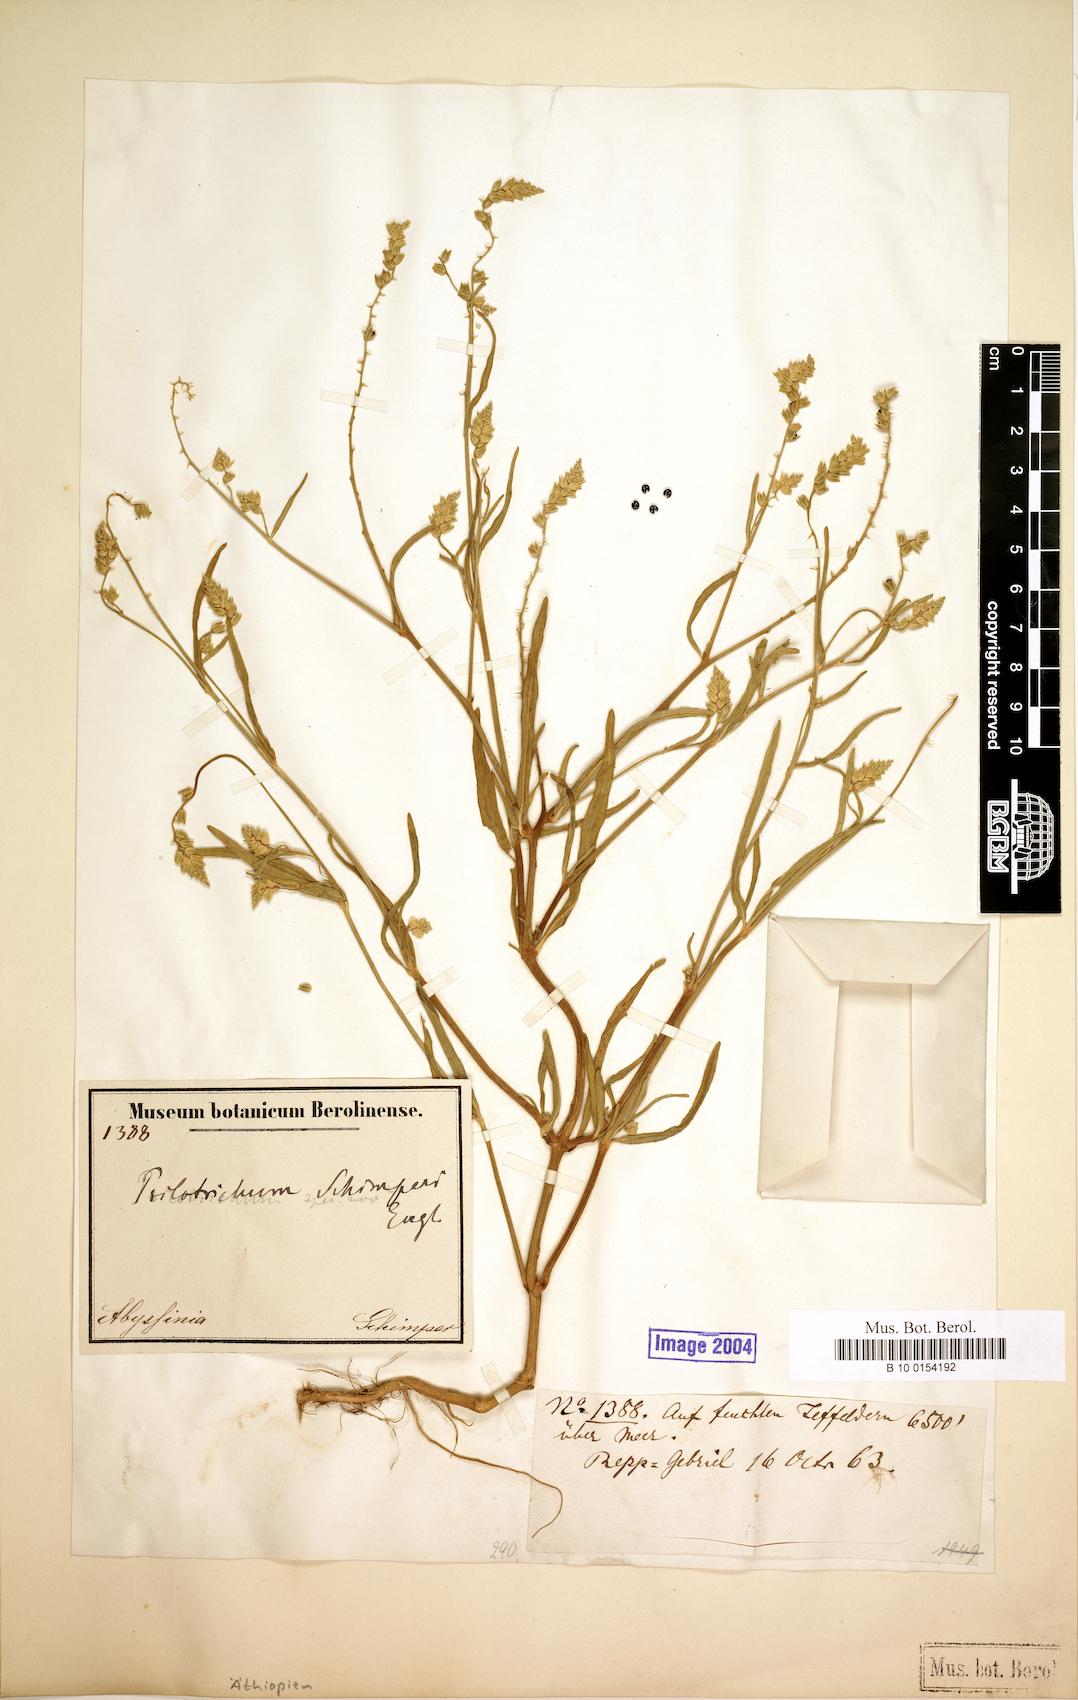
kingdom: Plantae
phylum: Tracheophyta
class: Magnoliopsida
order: Caryophyllales
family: Amaranthaceae
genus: Psilotrichum
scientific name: Psilotrichum schimperi
